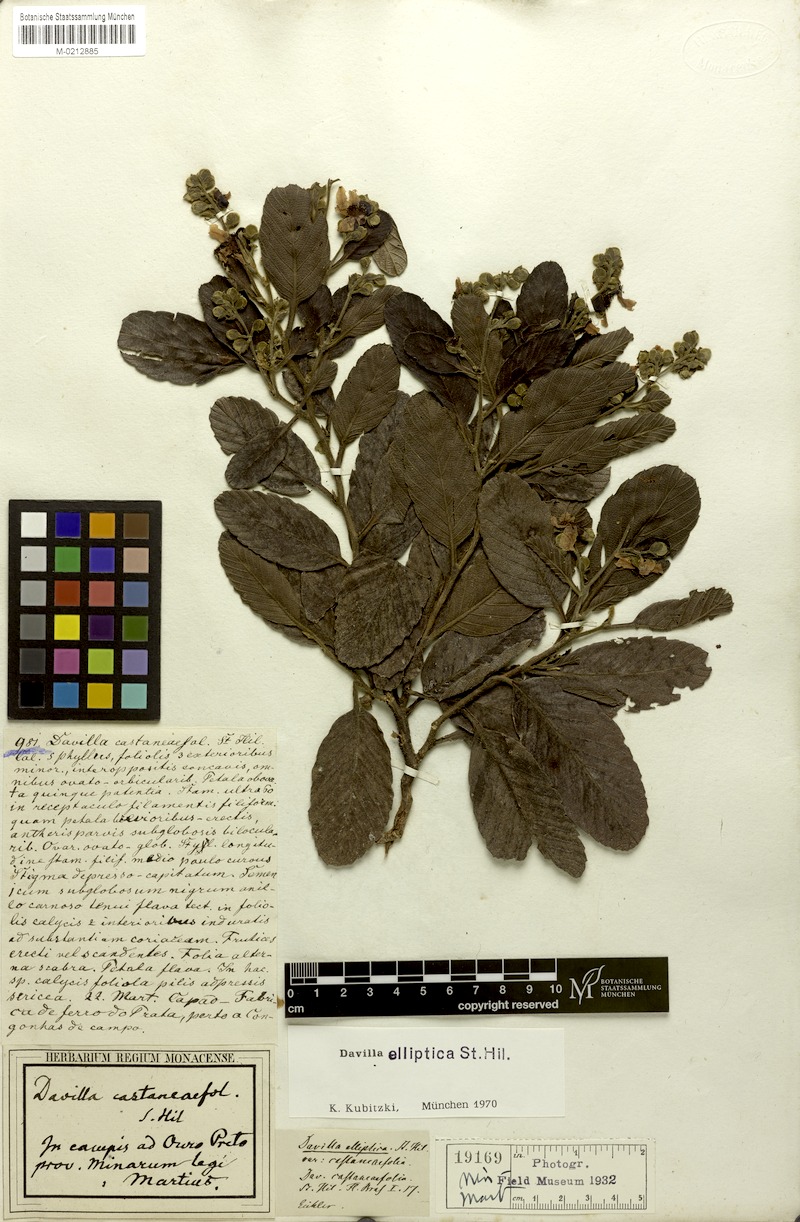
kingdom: Plantae
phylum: Tracheophyta
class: Magnoliopsida
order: Dilleniales
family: Dilleniaceae
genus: Davilla
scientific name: Davilla elliptica
